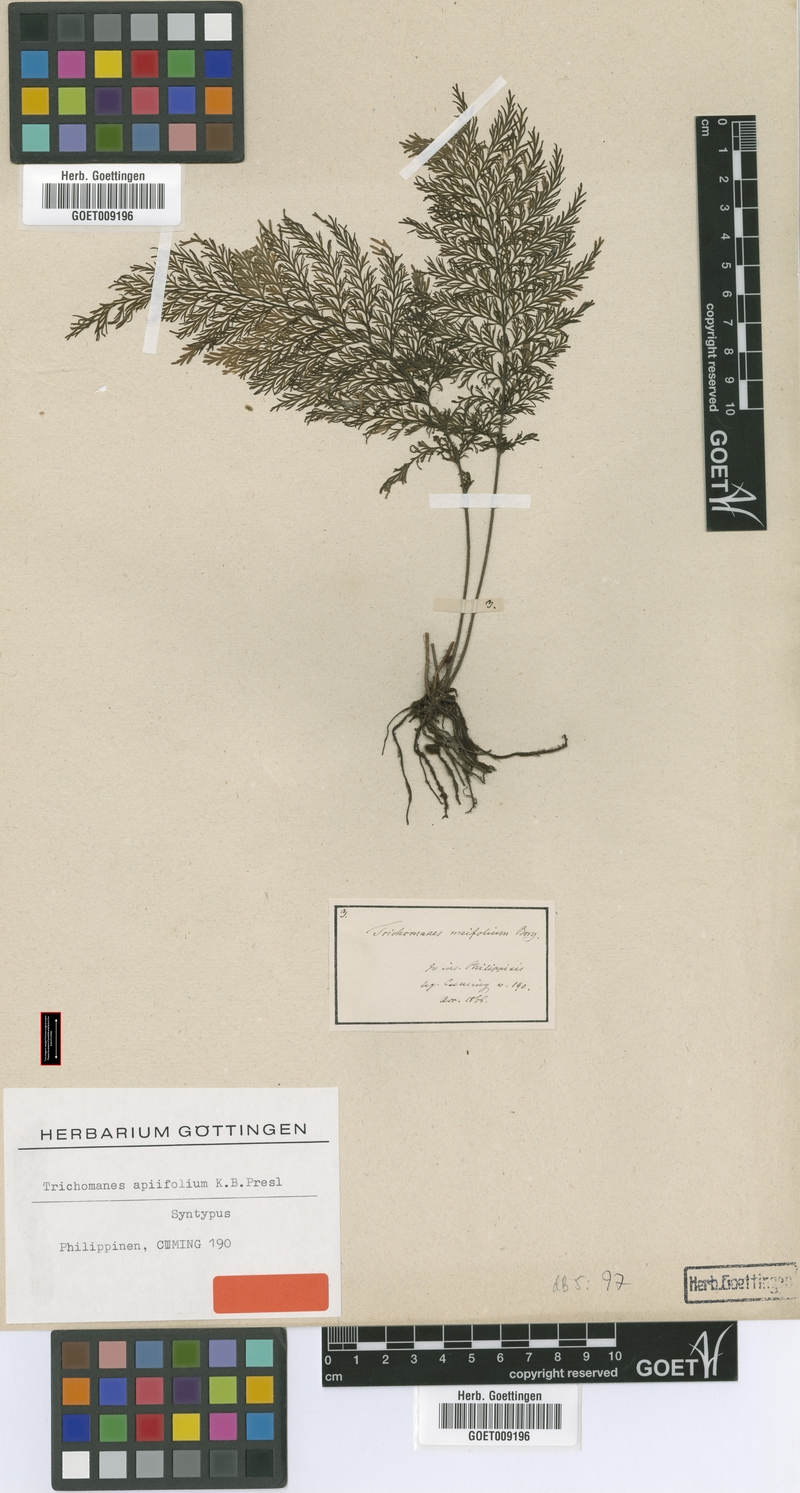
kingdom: Plantae
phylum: Tracheophyta
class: Polypodiopsida
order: Hymenophyllales
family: Hymenophyllaceae
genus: Callistopteris
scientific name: Callistopteris apiifolia
